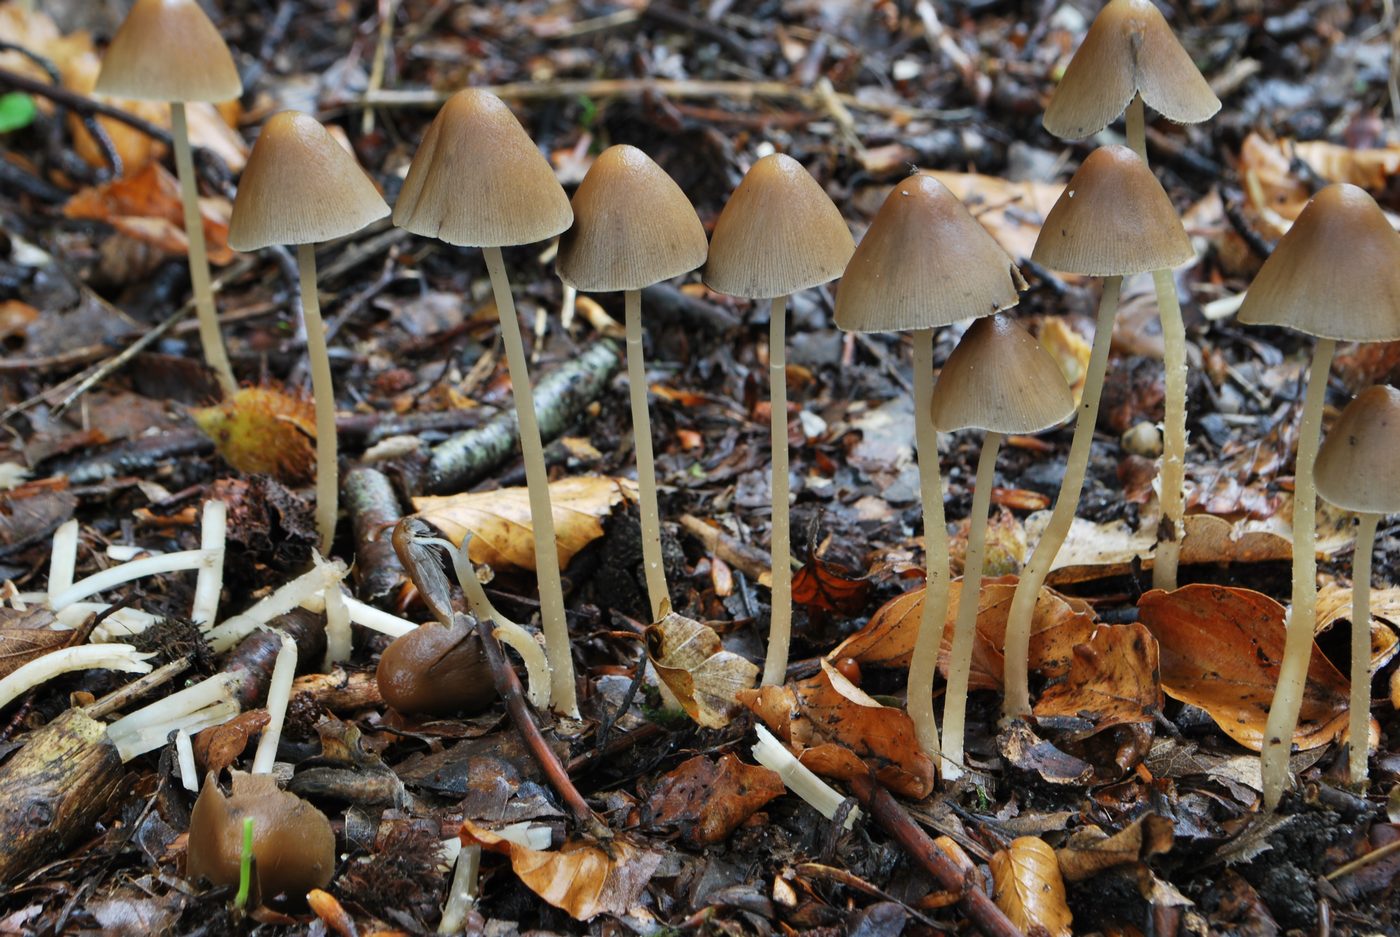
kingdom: Fungi
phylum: Basidiomycota
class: Agaricomycetes
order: Agaricales
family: Psathyrellaceae
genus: Parasola
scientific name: Parasola conopilea
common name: kegle-hjulhat
